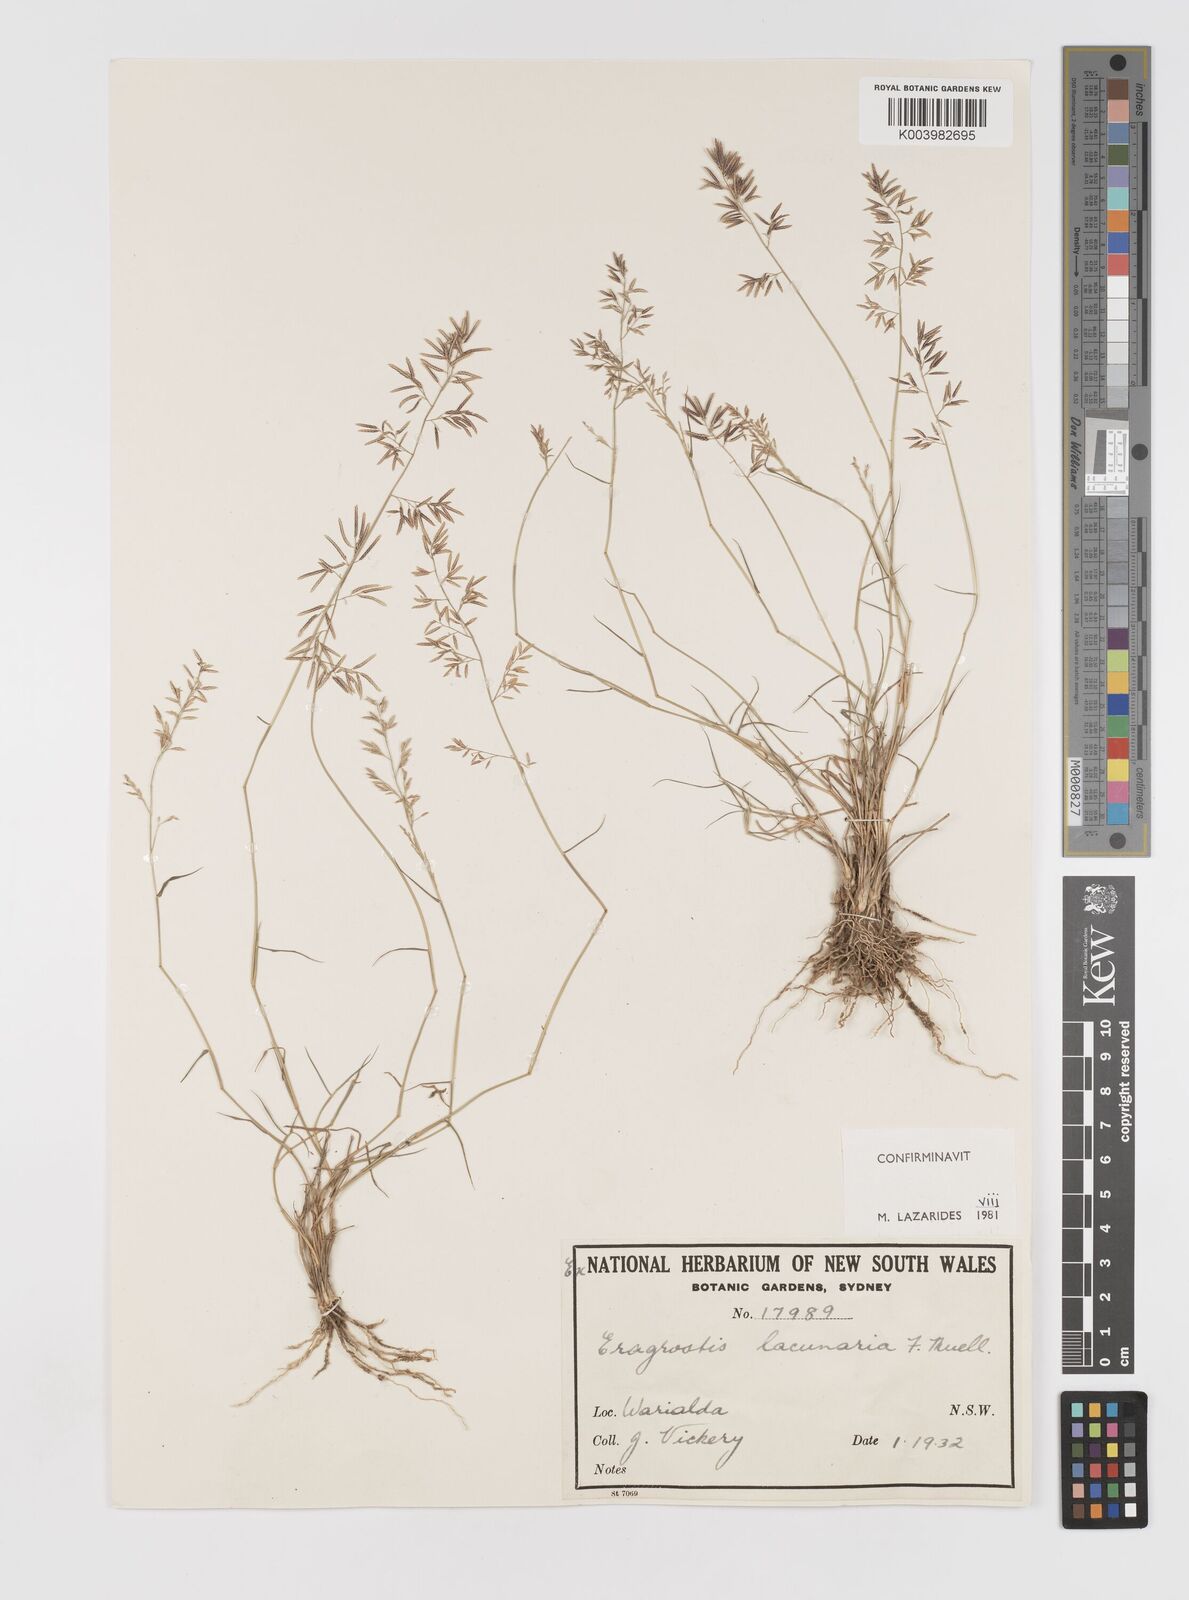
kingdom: Plantae
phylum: Tracheophyta
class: Liliopsida
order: Poales
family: Poaceae
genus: Eragrostis
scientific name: Eragrostis lacunaria
